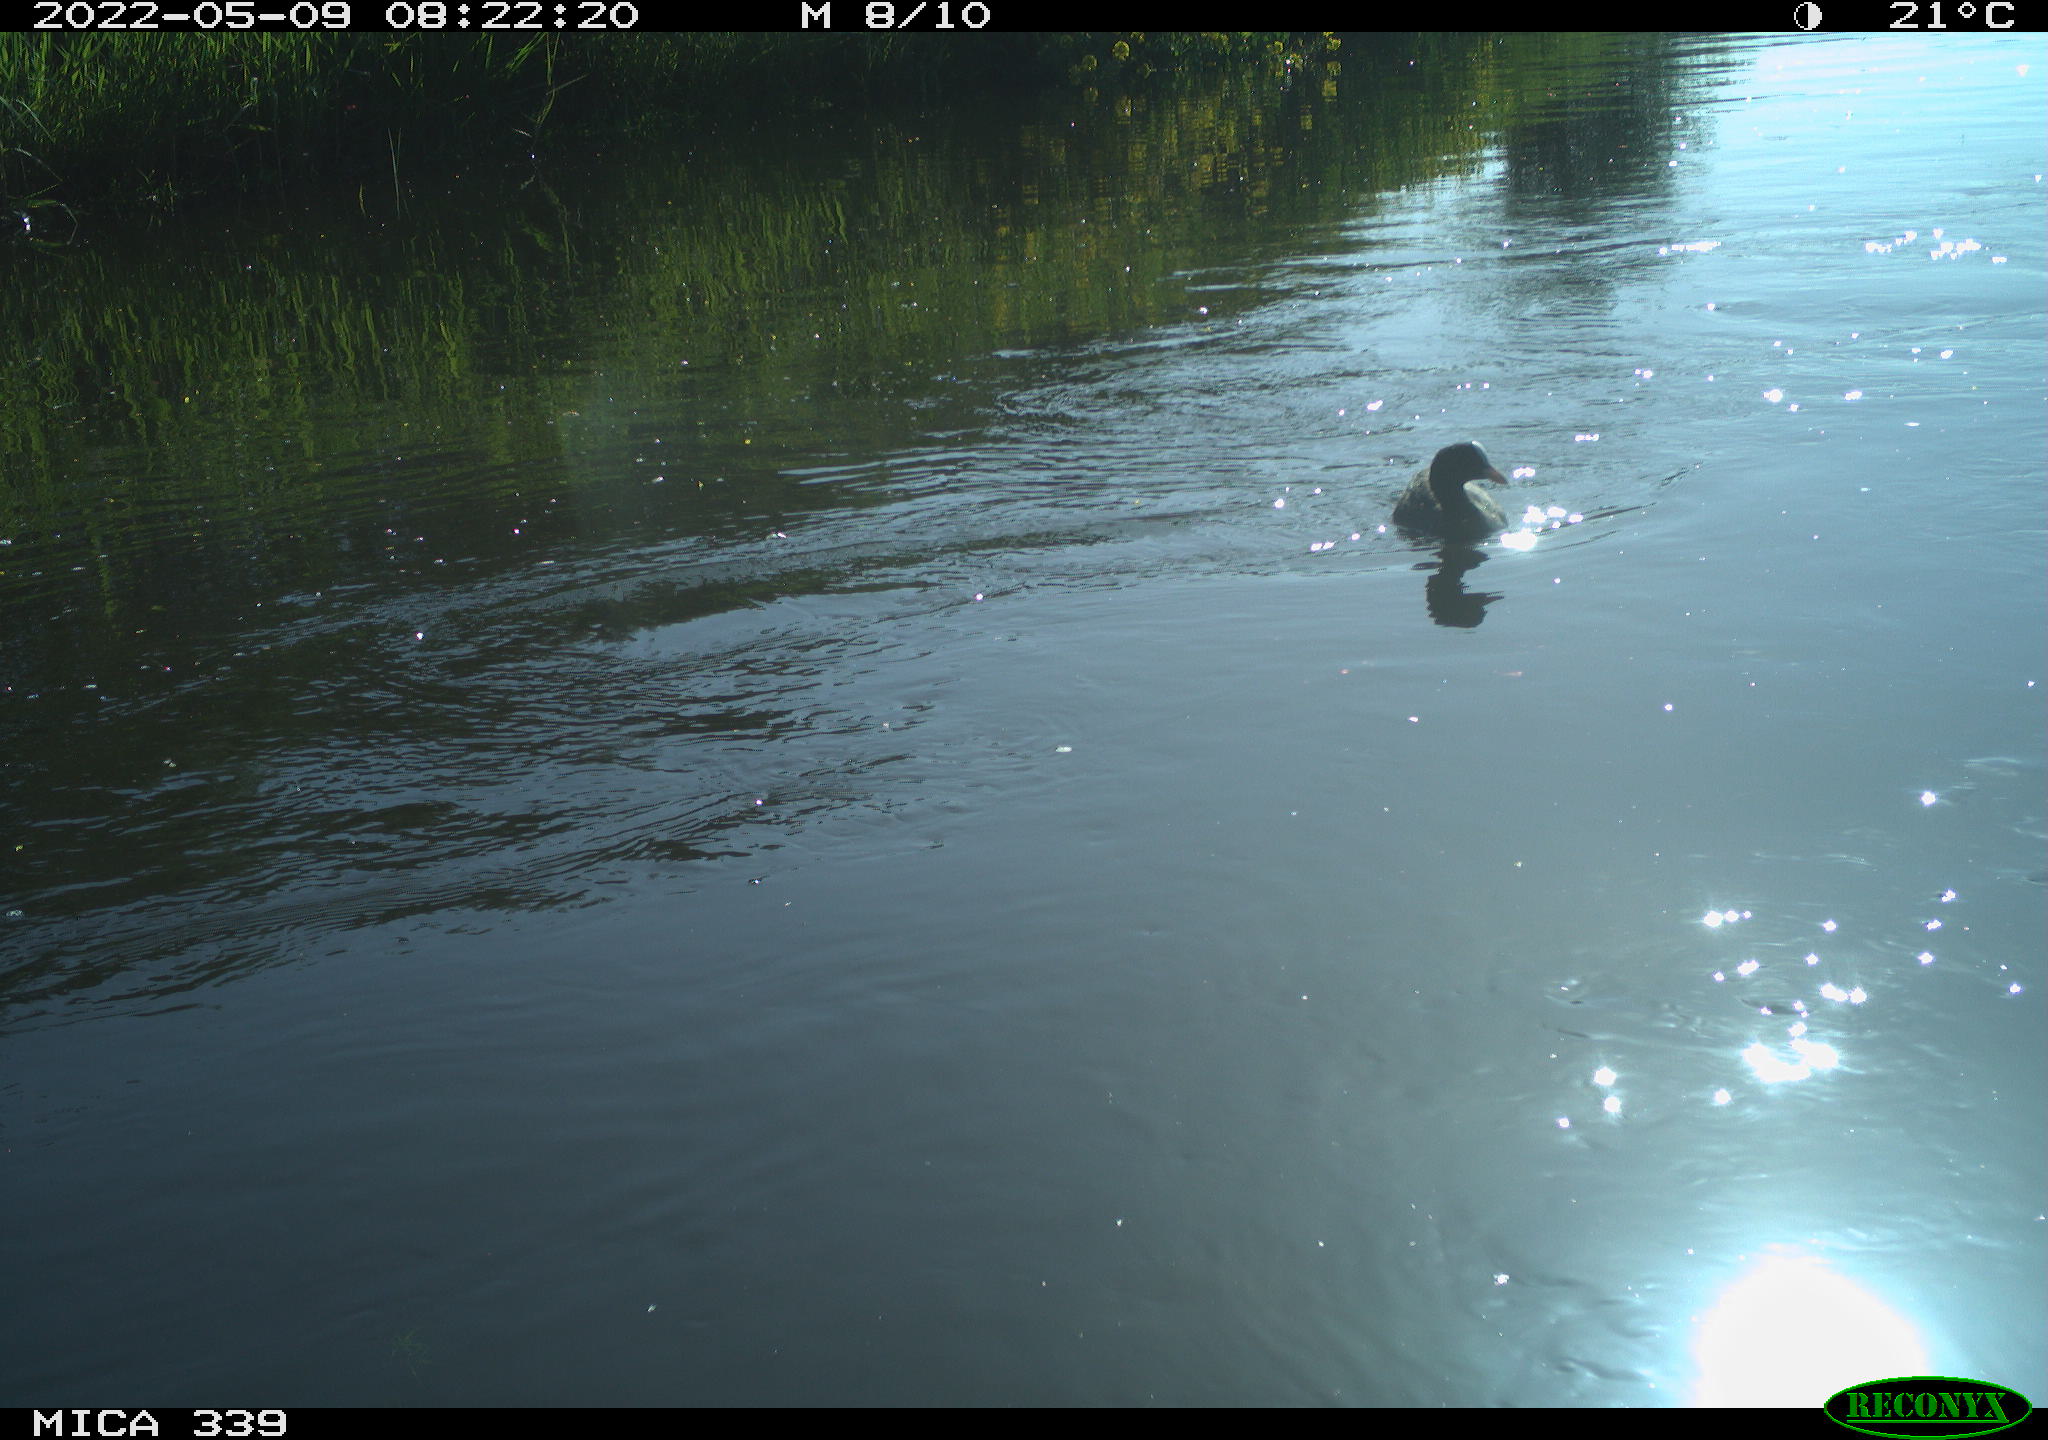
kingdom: Animalia
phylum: Chordata
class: Aves
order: Gruiformes
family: Rallidae
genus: Fulica
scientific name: Fulica atra
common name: Eurasian coot
